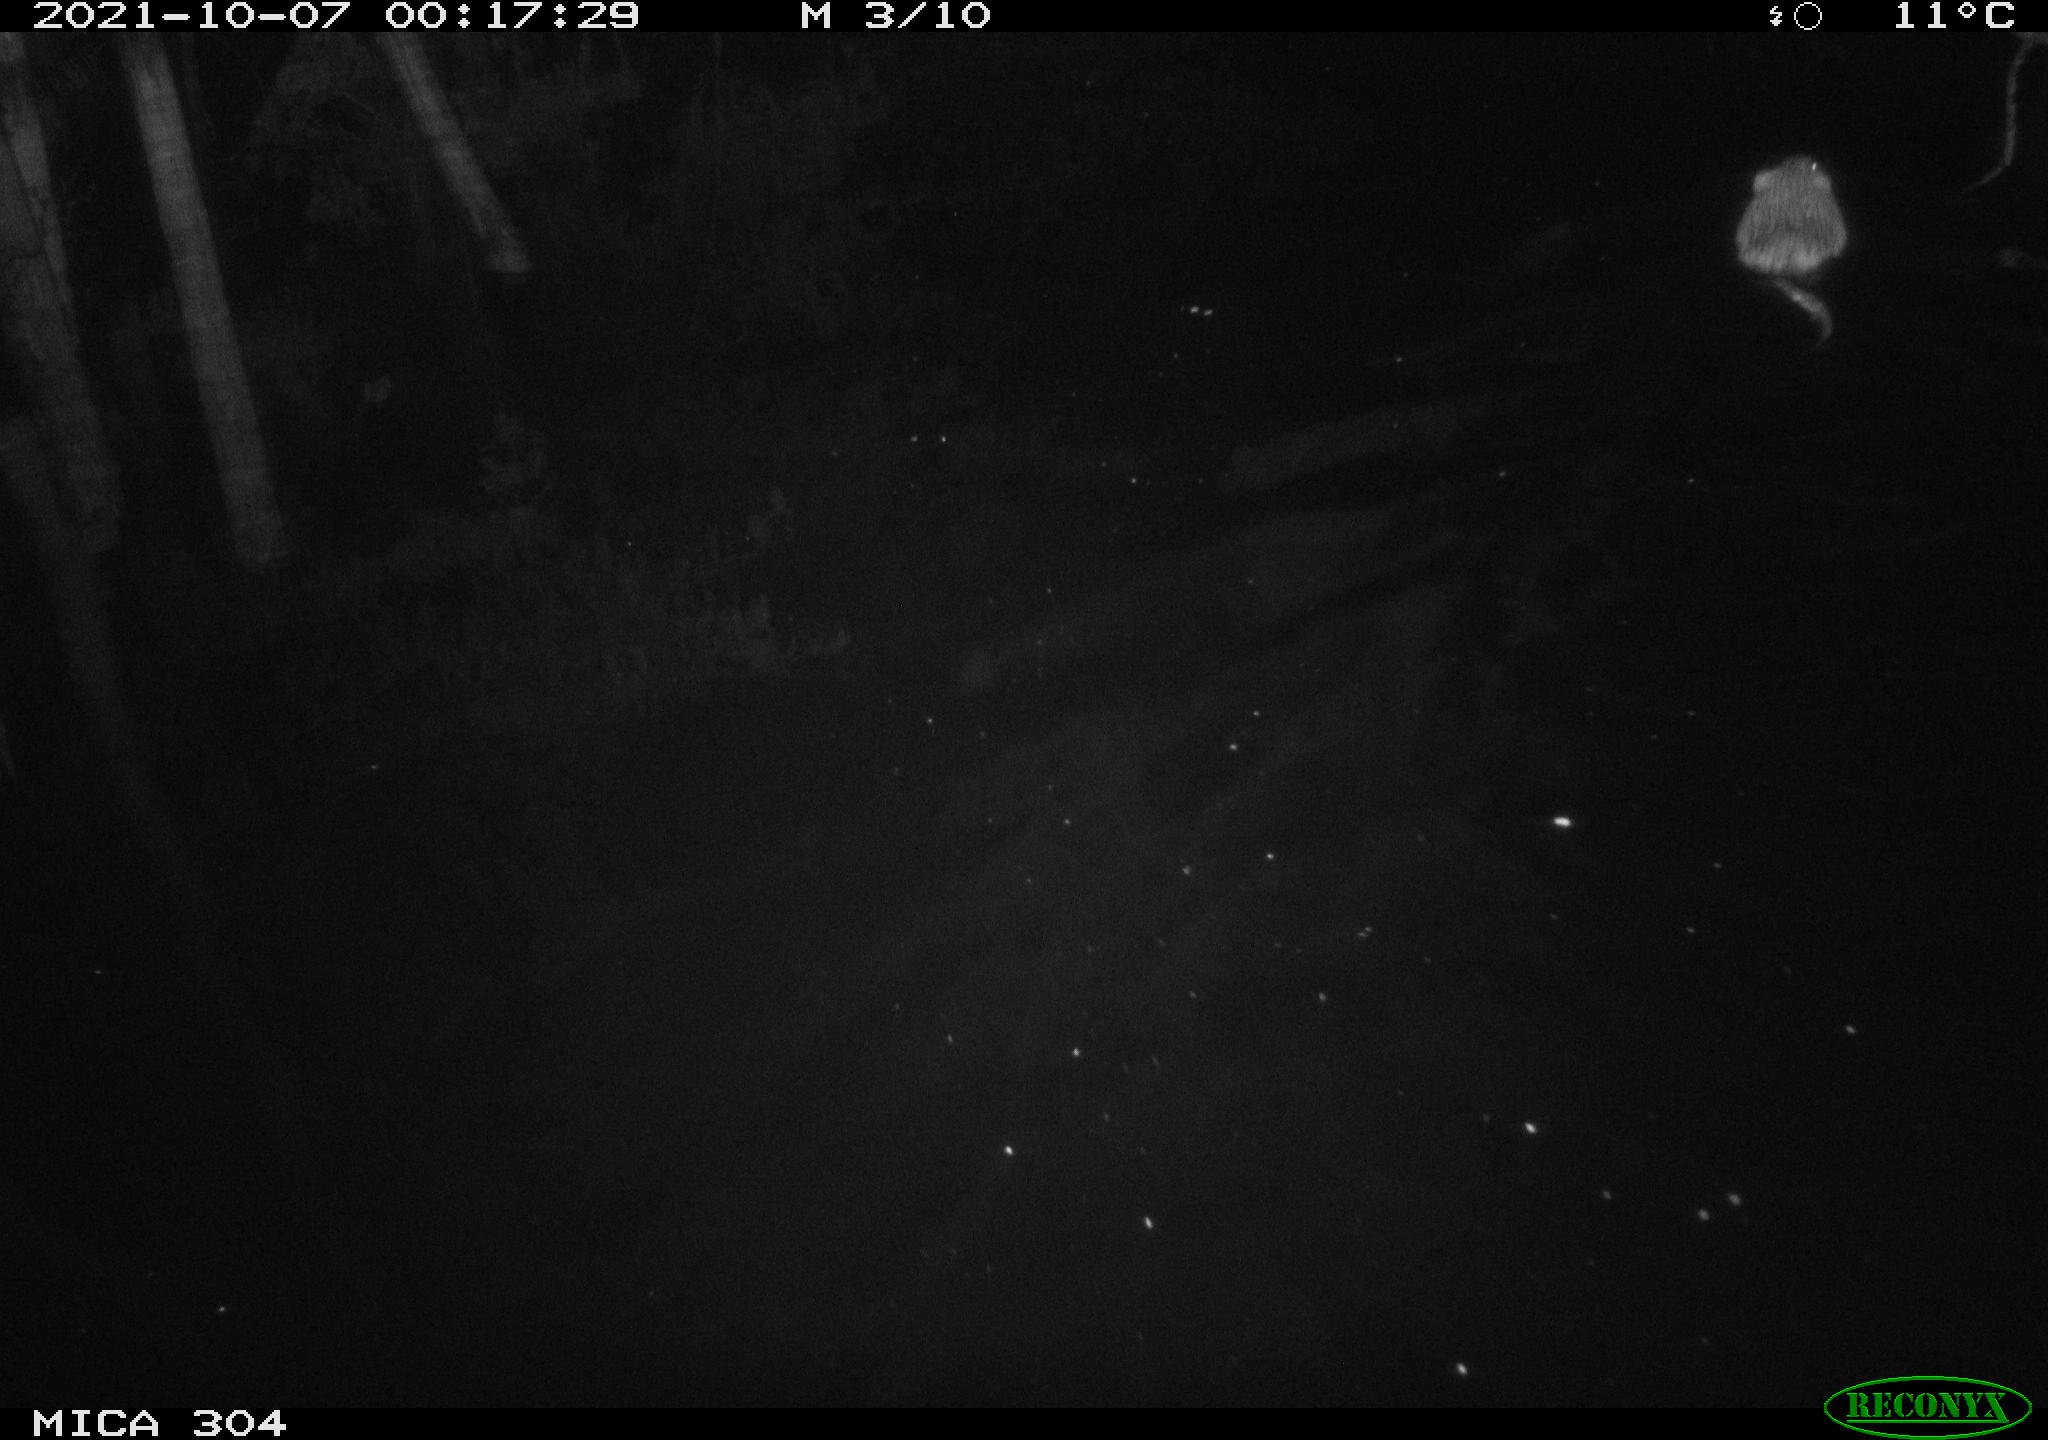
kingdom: Animalia
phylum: Chordata
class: Mammalia
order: Rodentia
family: Cricetidae
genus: Ondatra
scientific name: Ondatra zibethicus
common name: Muskrat
